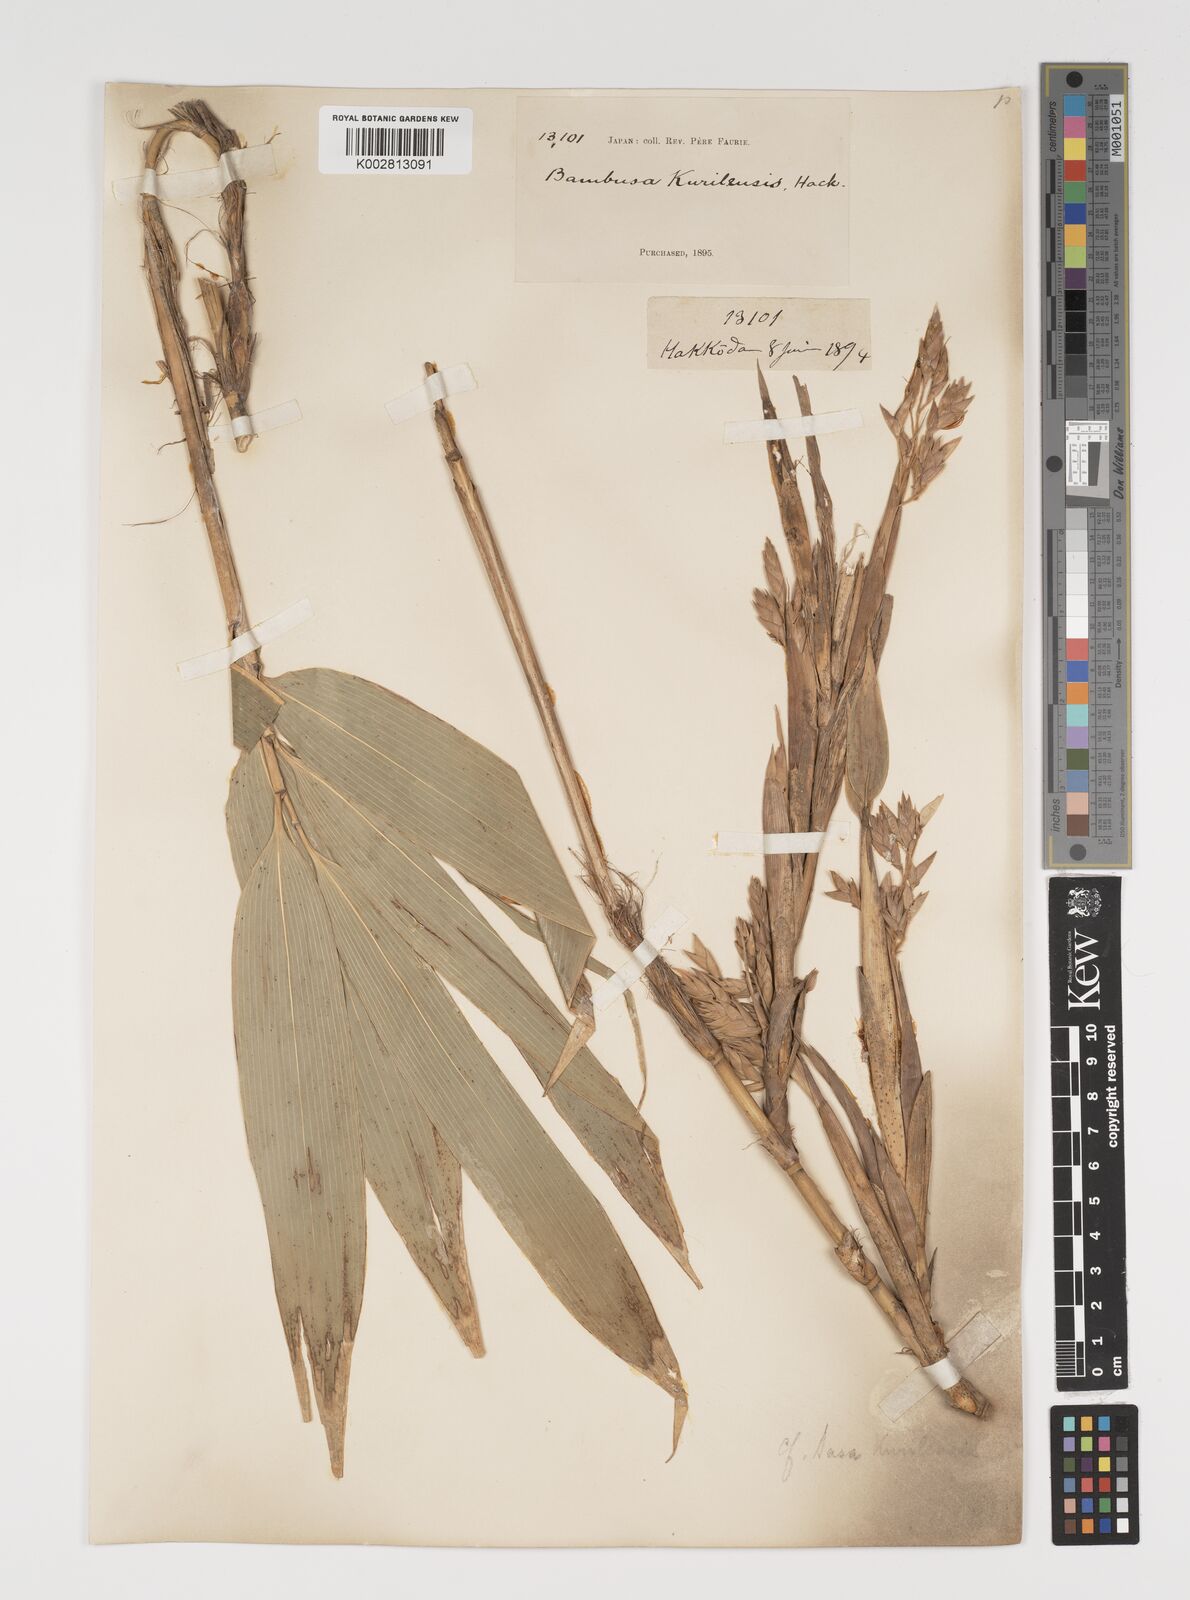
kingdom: Plantae
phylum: Tracheophyta
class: Liliopsida
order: Poales
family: Poaceae
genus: Sasa
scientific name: Sasa kurilensis
